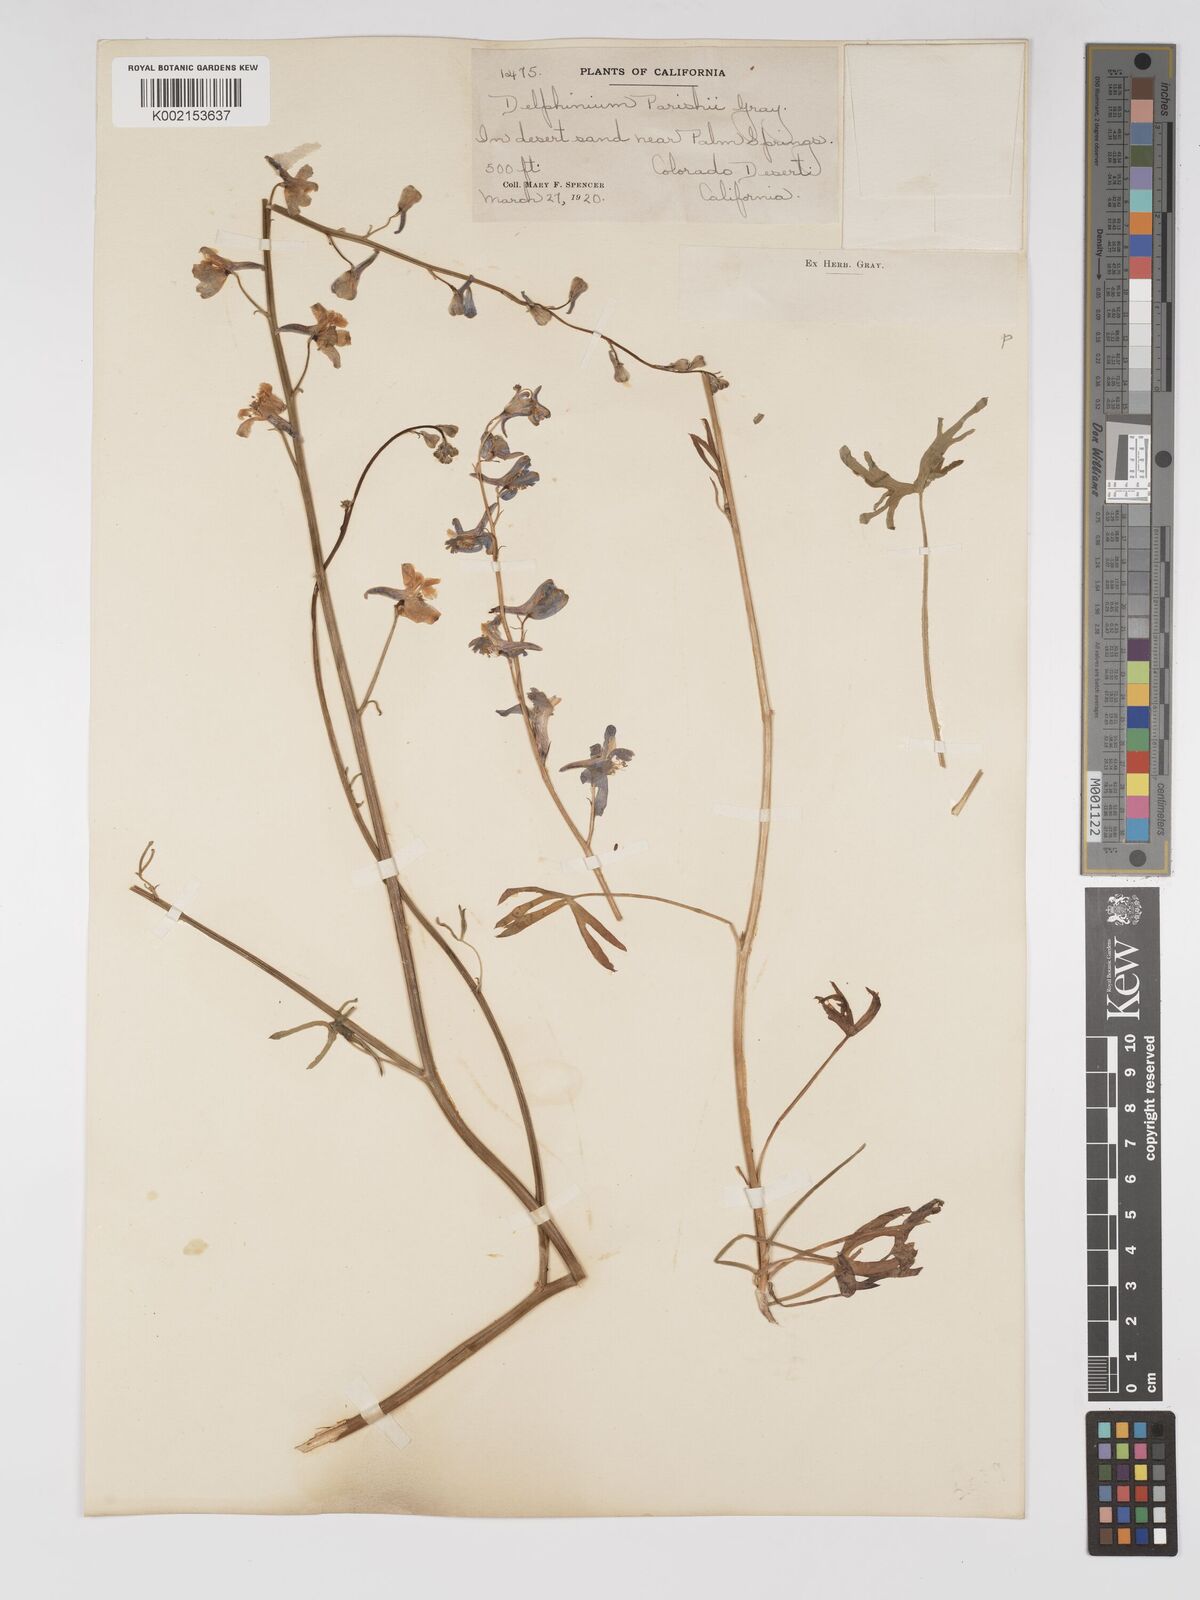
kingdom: Plantae
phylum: Tracheophyta
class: Magnoliopsida
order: Ranunculales
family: Ranunculaceae
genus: Delphinium
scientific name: Delphinium parishii
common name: Apache larkspur
